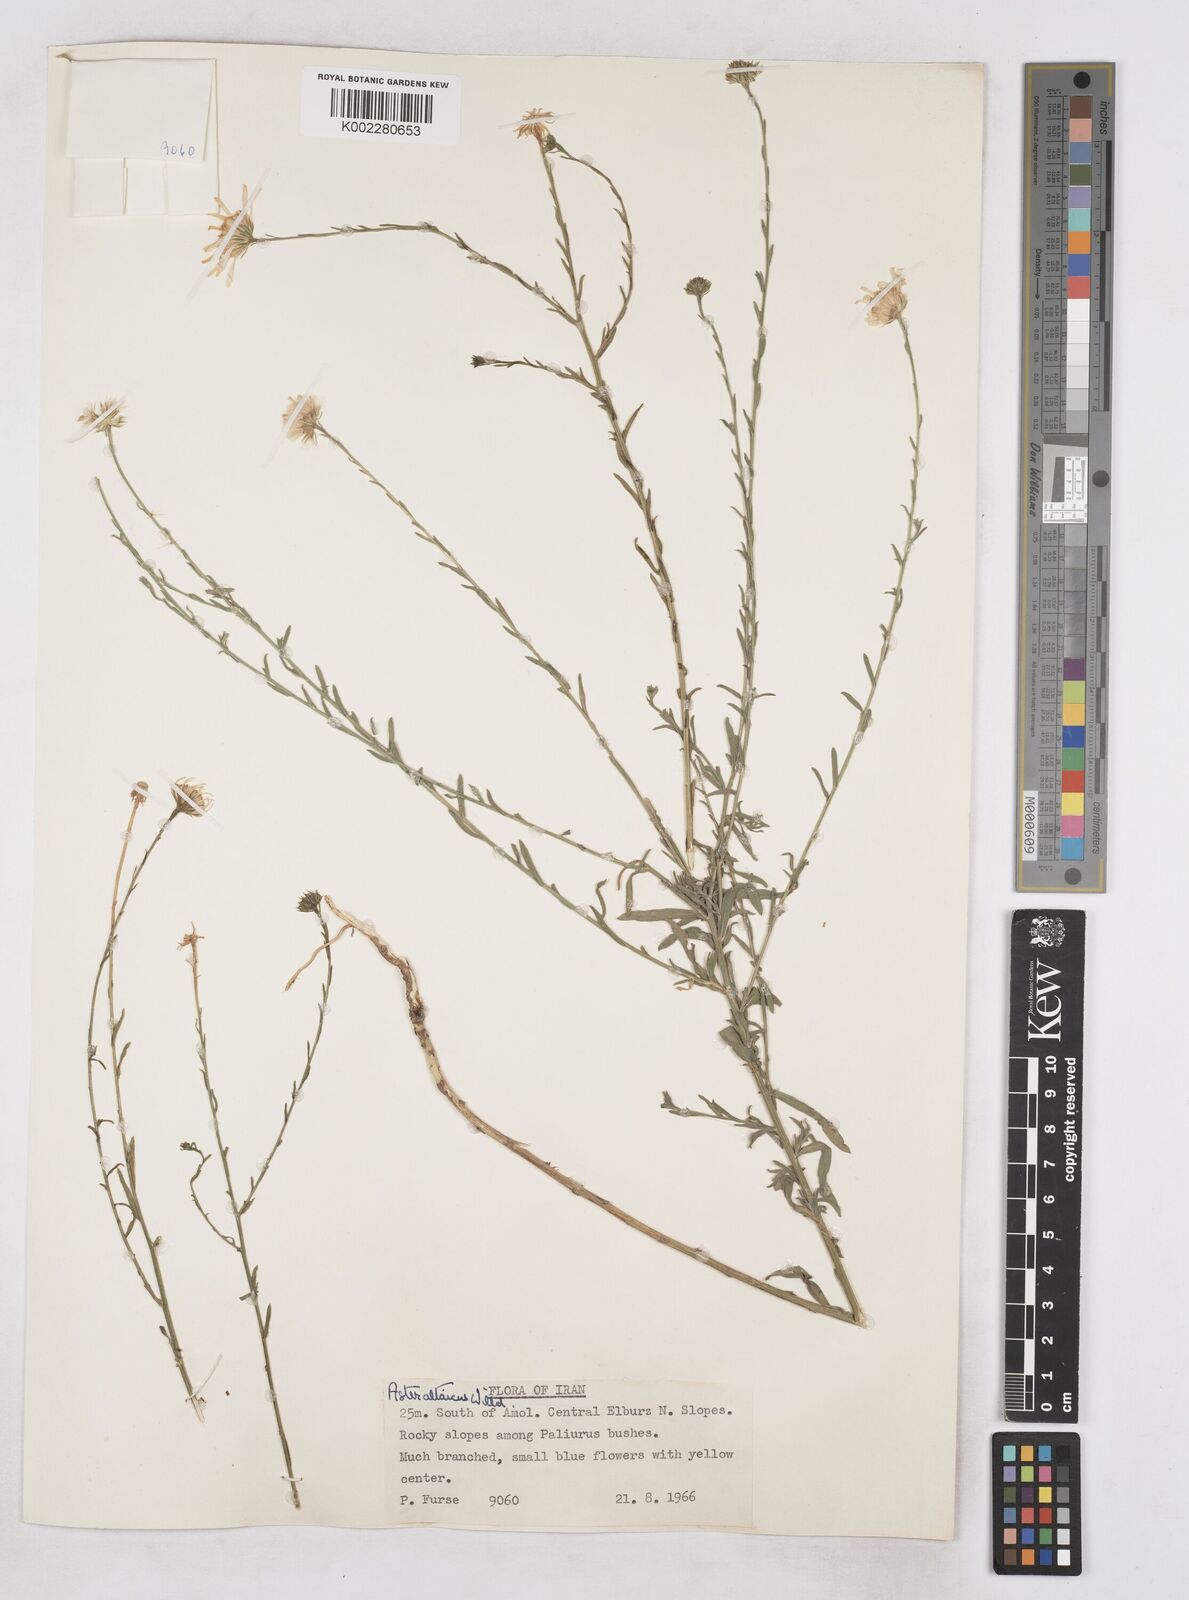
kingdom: Plantae
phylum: Tracheophyta
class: Magnoliopsida
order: Asterales
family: Asteraceae
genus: Heteropappus
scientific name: Heteropappus altaicus
